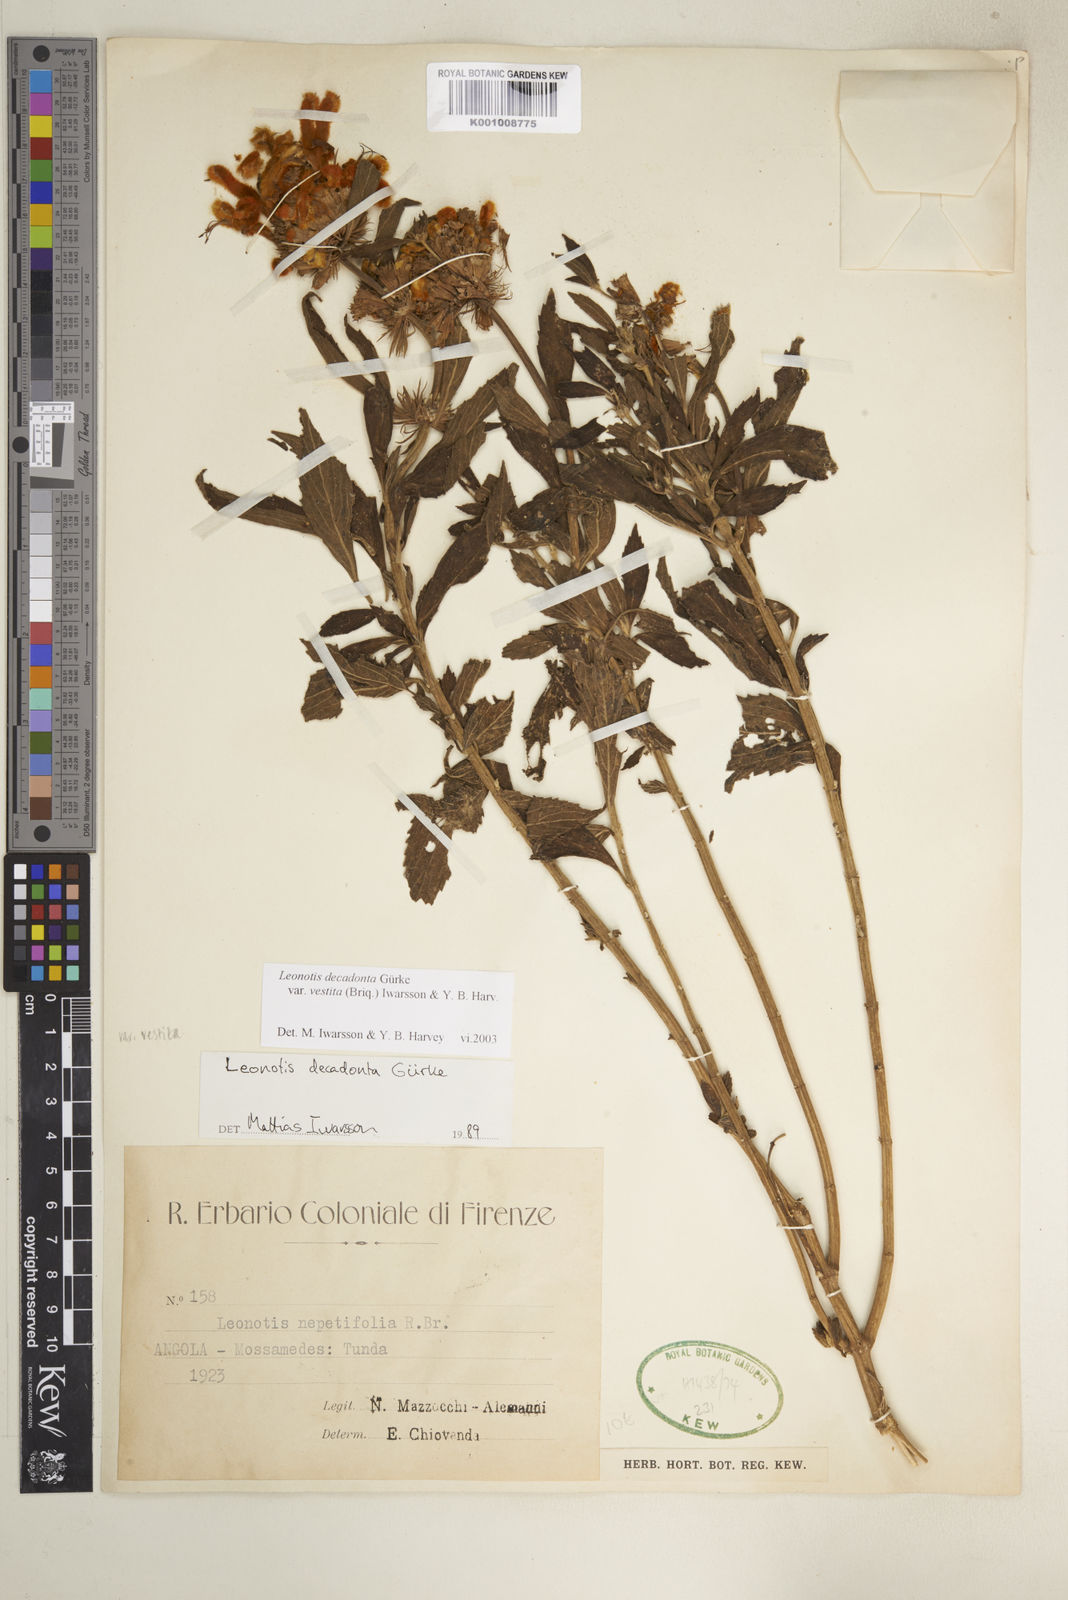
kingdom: Plantae
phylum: Tracheophyta
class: Magnoliopsida
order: Lamiales
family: Lamiaceae
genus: Leonotis
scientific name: Leonotis
